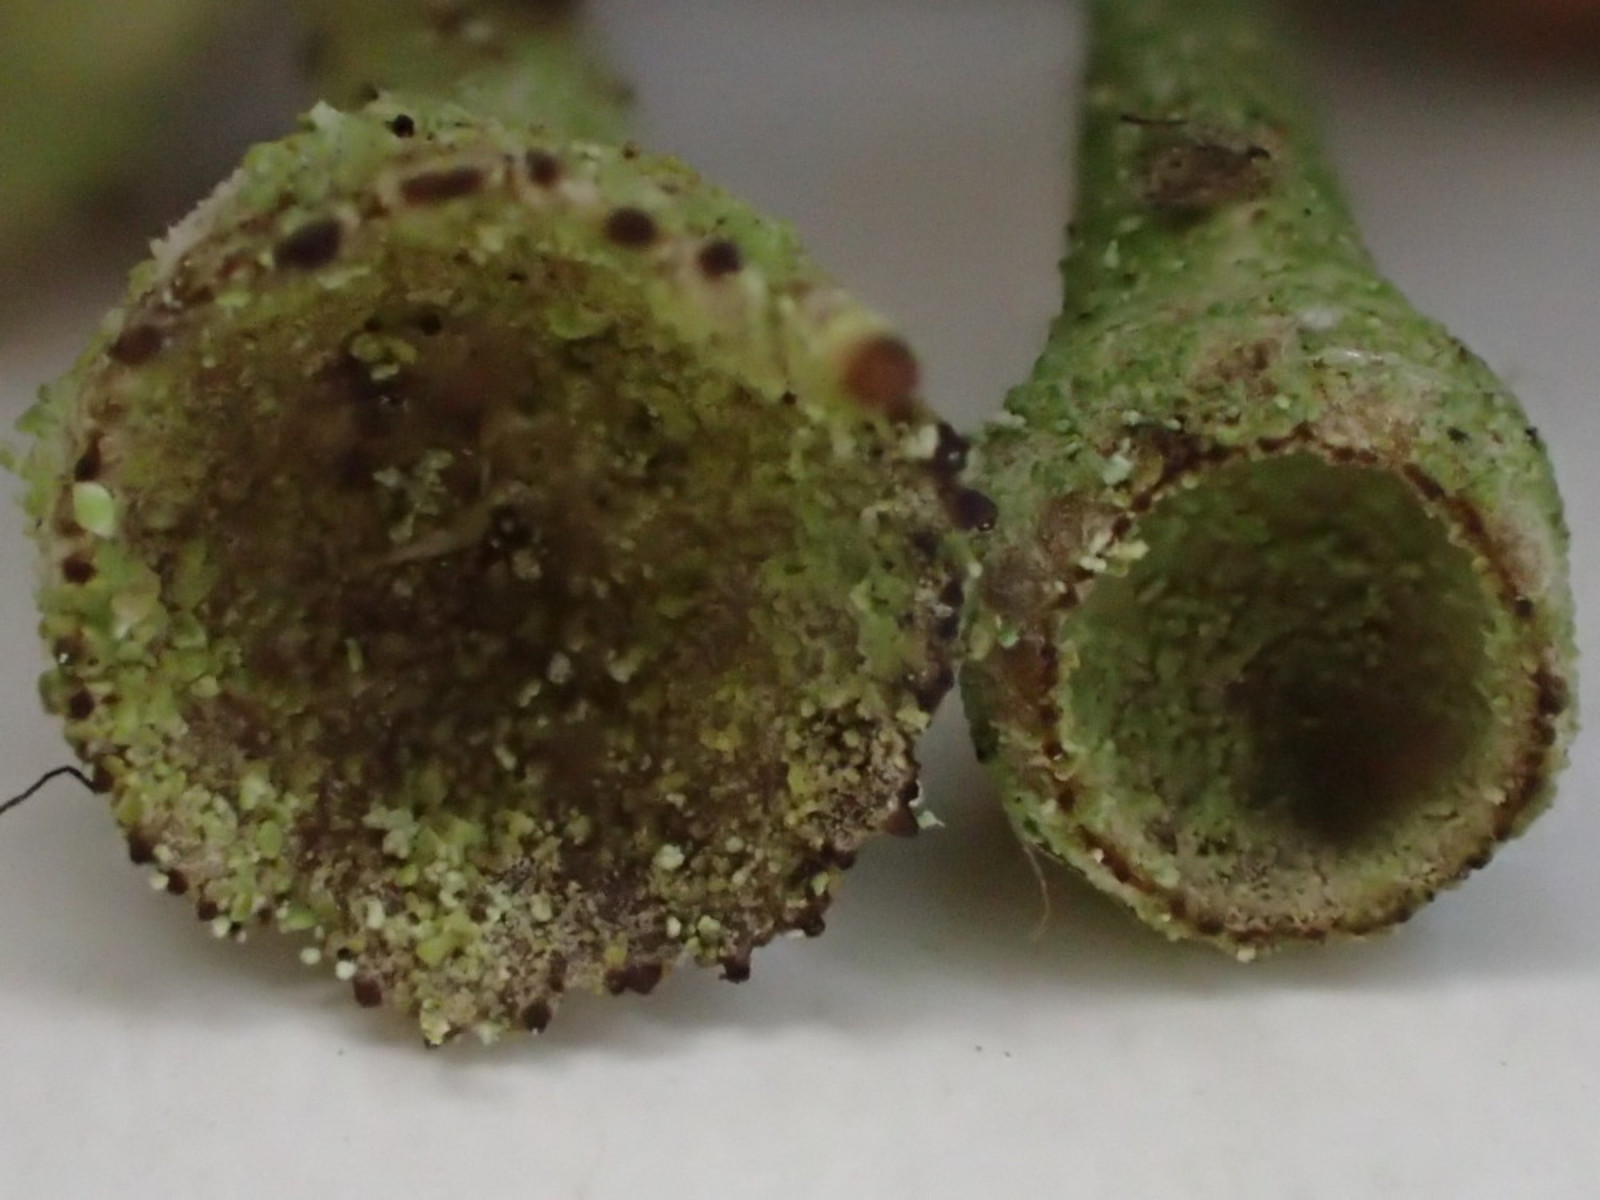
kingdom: Fungi
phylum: Ascomycota
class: Lecanoromycetes
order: Lecanorales
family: Cladoniaceae
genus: Cladonia
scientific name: Cladonia
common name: brungrøn bægerlav
